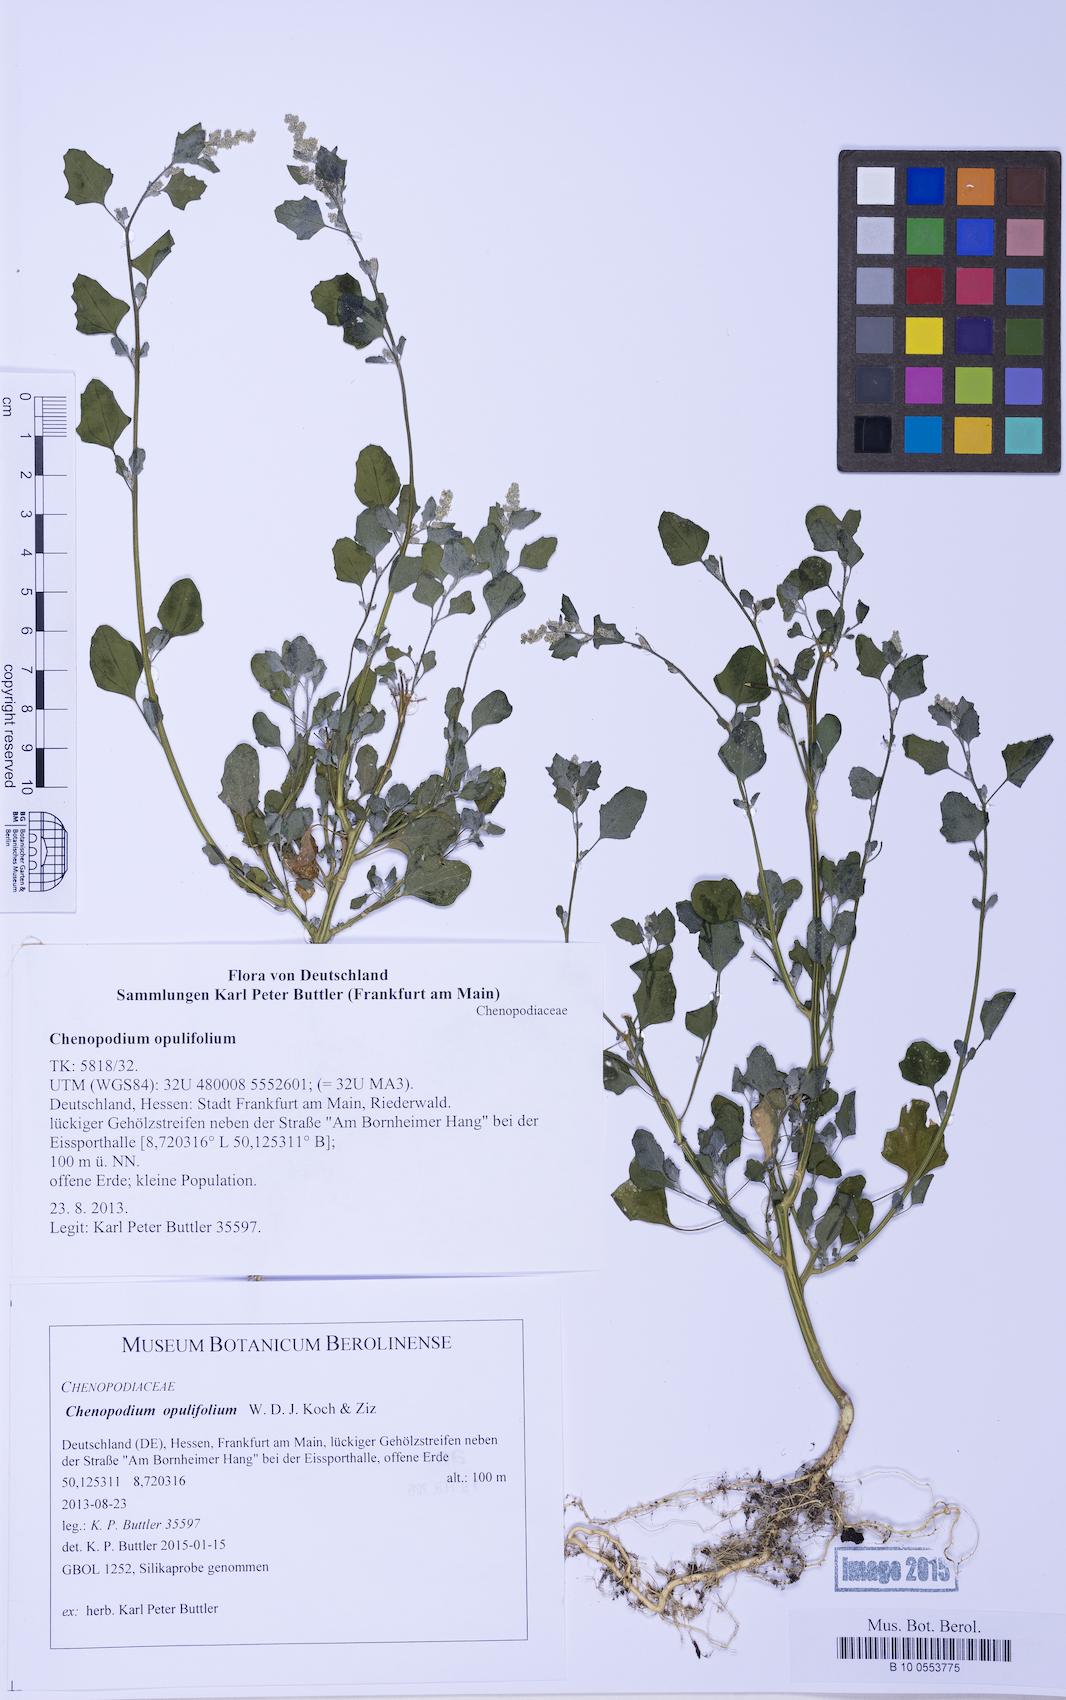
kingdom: Plantae
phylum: Tracheophyta
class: Magnoliopsida
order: Caryophyllales
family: Amaranthaceae
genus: Chenopodium
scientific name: Chenopodium opulifolium
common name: Grey goosefoot
